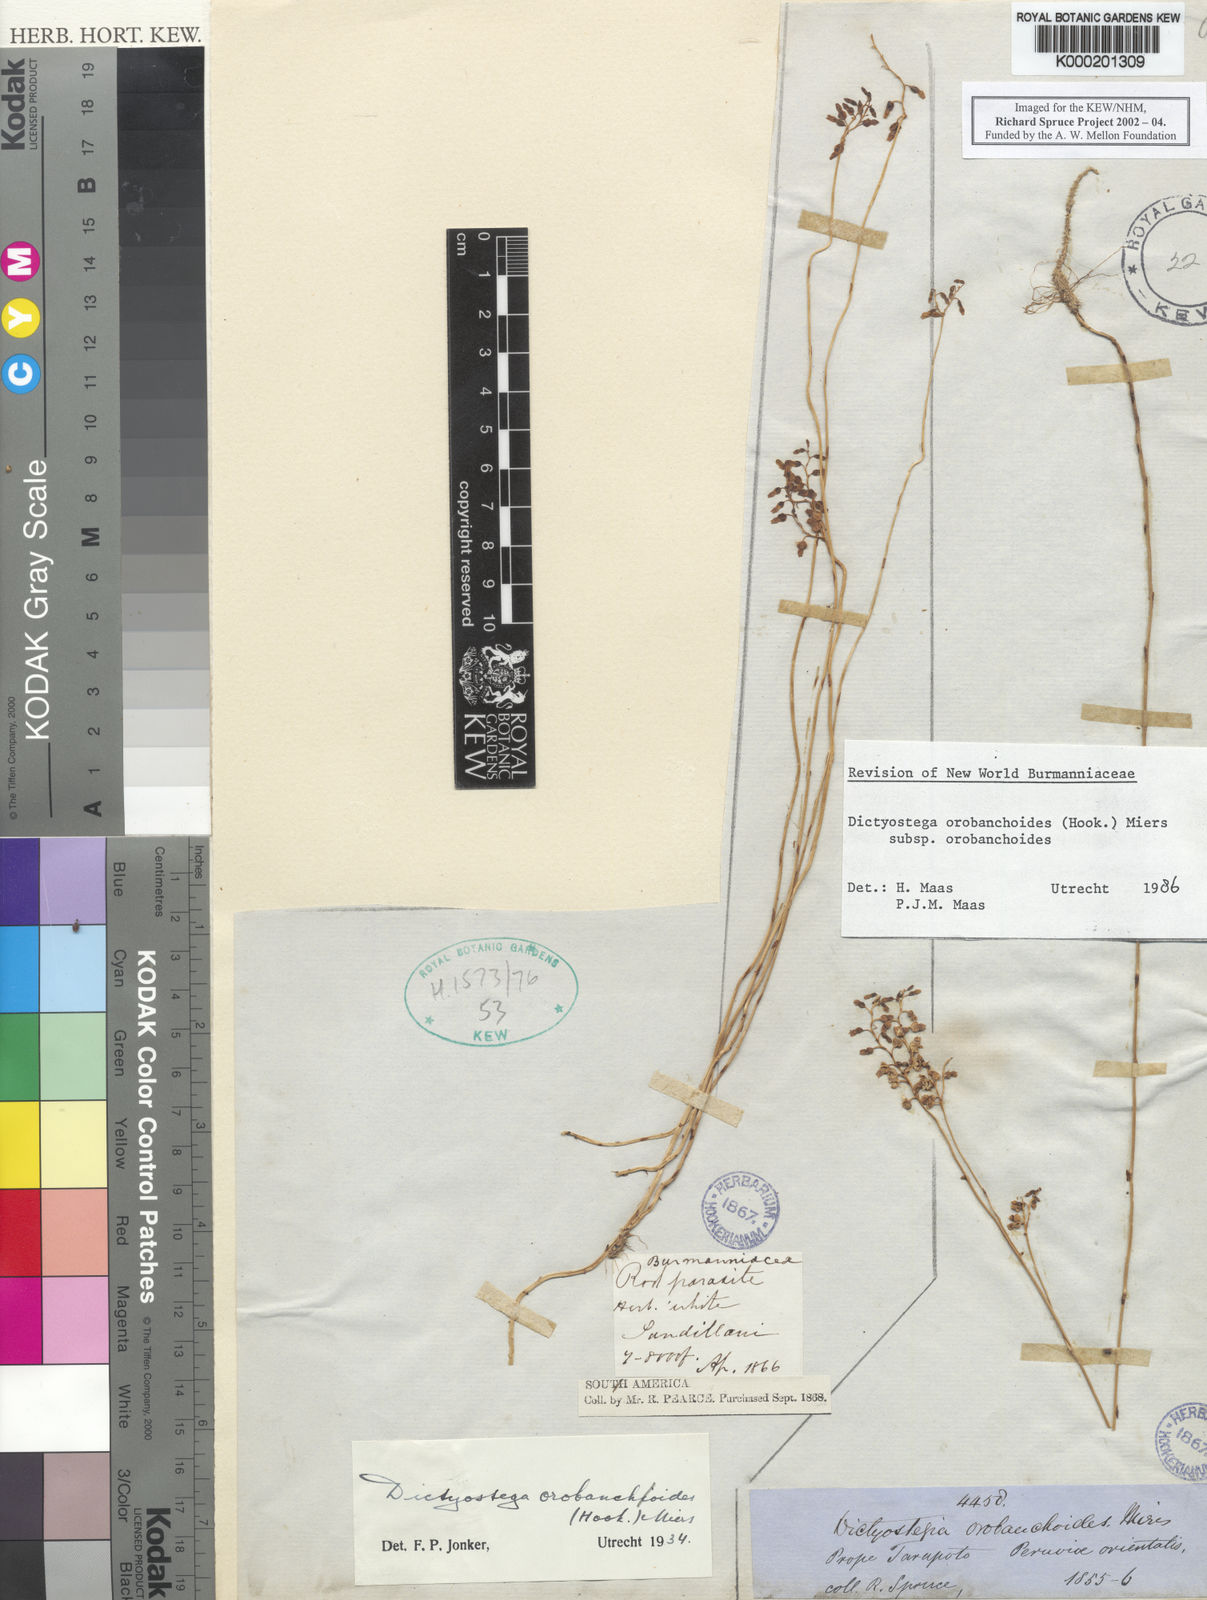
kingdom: Plantae
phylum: Tracheophyta
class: Liliopsida
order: Dioscoreales
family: Burmanniaceae
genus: Dictyostega
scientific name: Dictyostega orobanchoides
